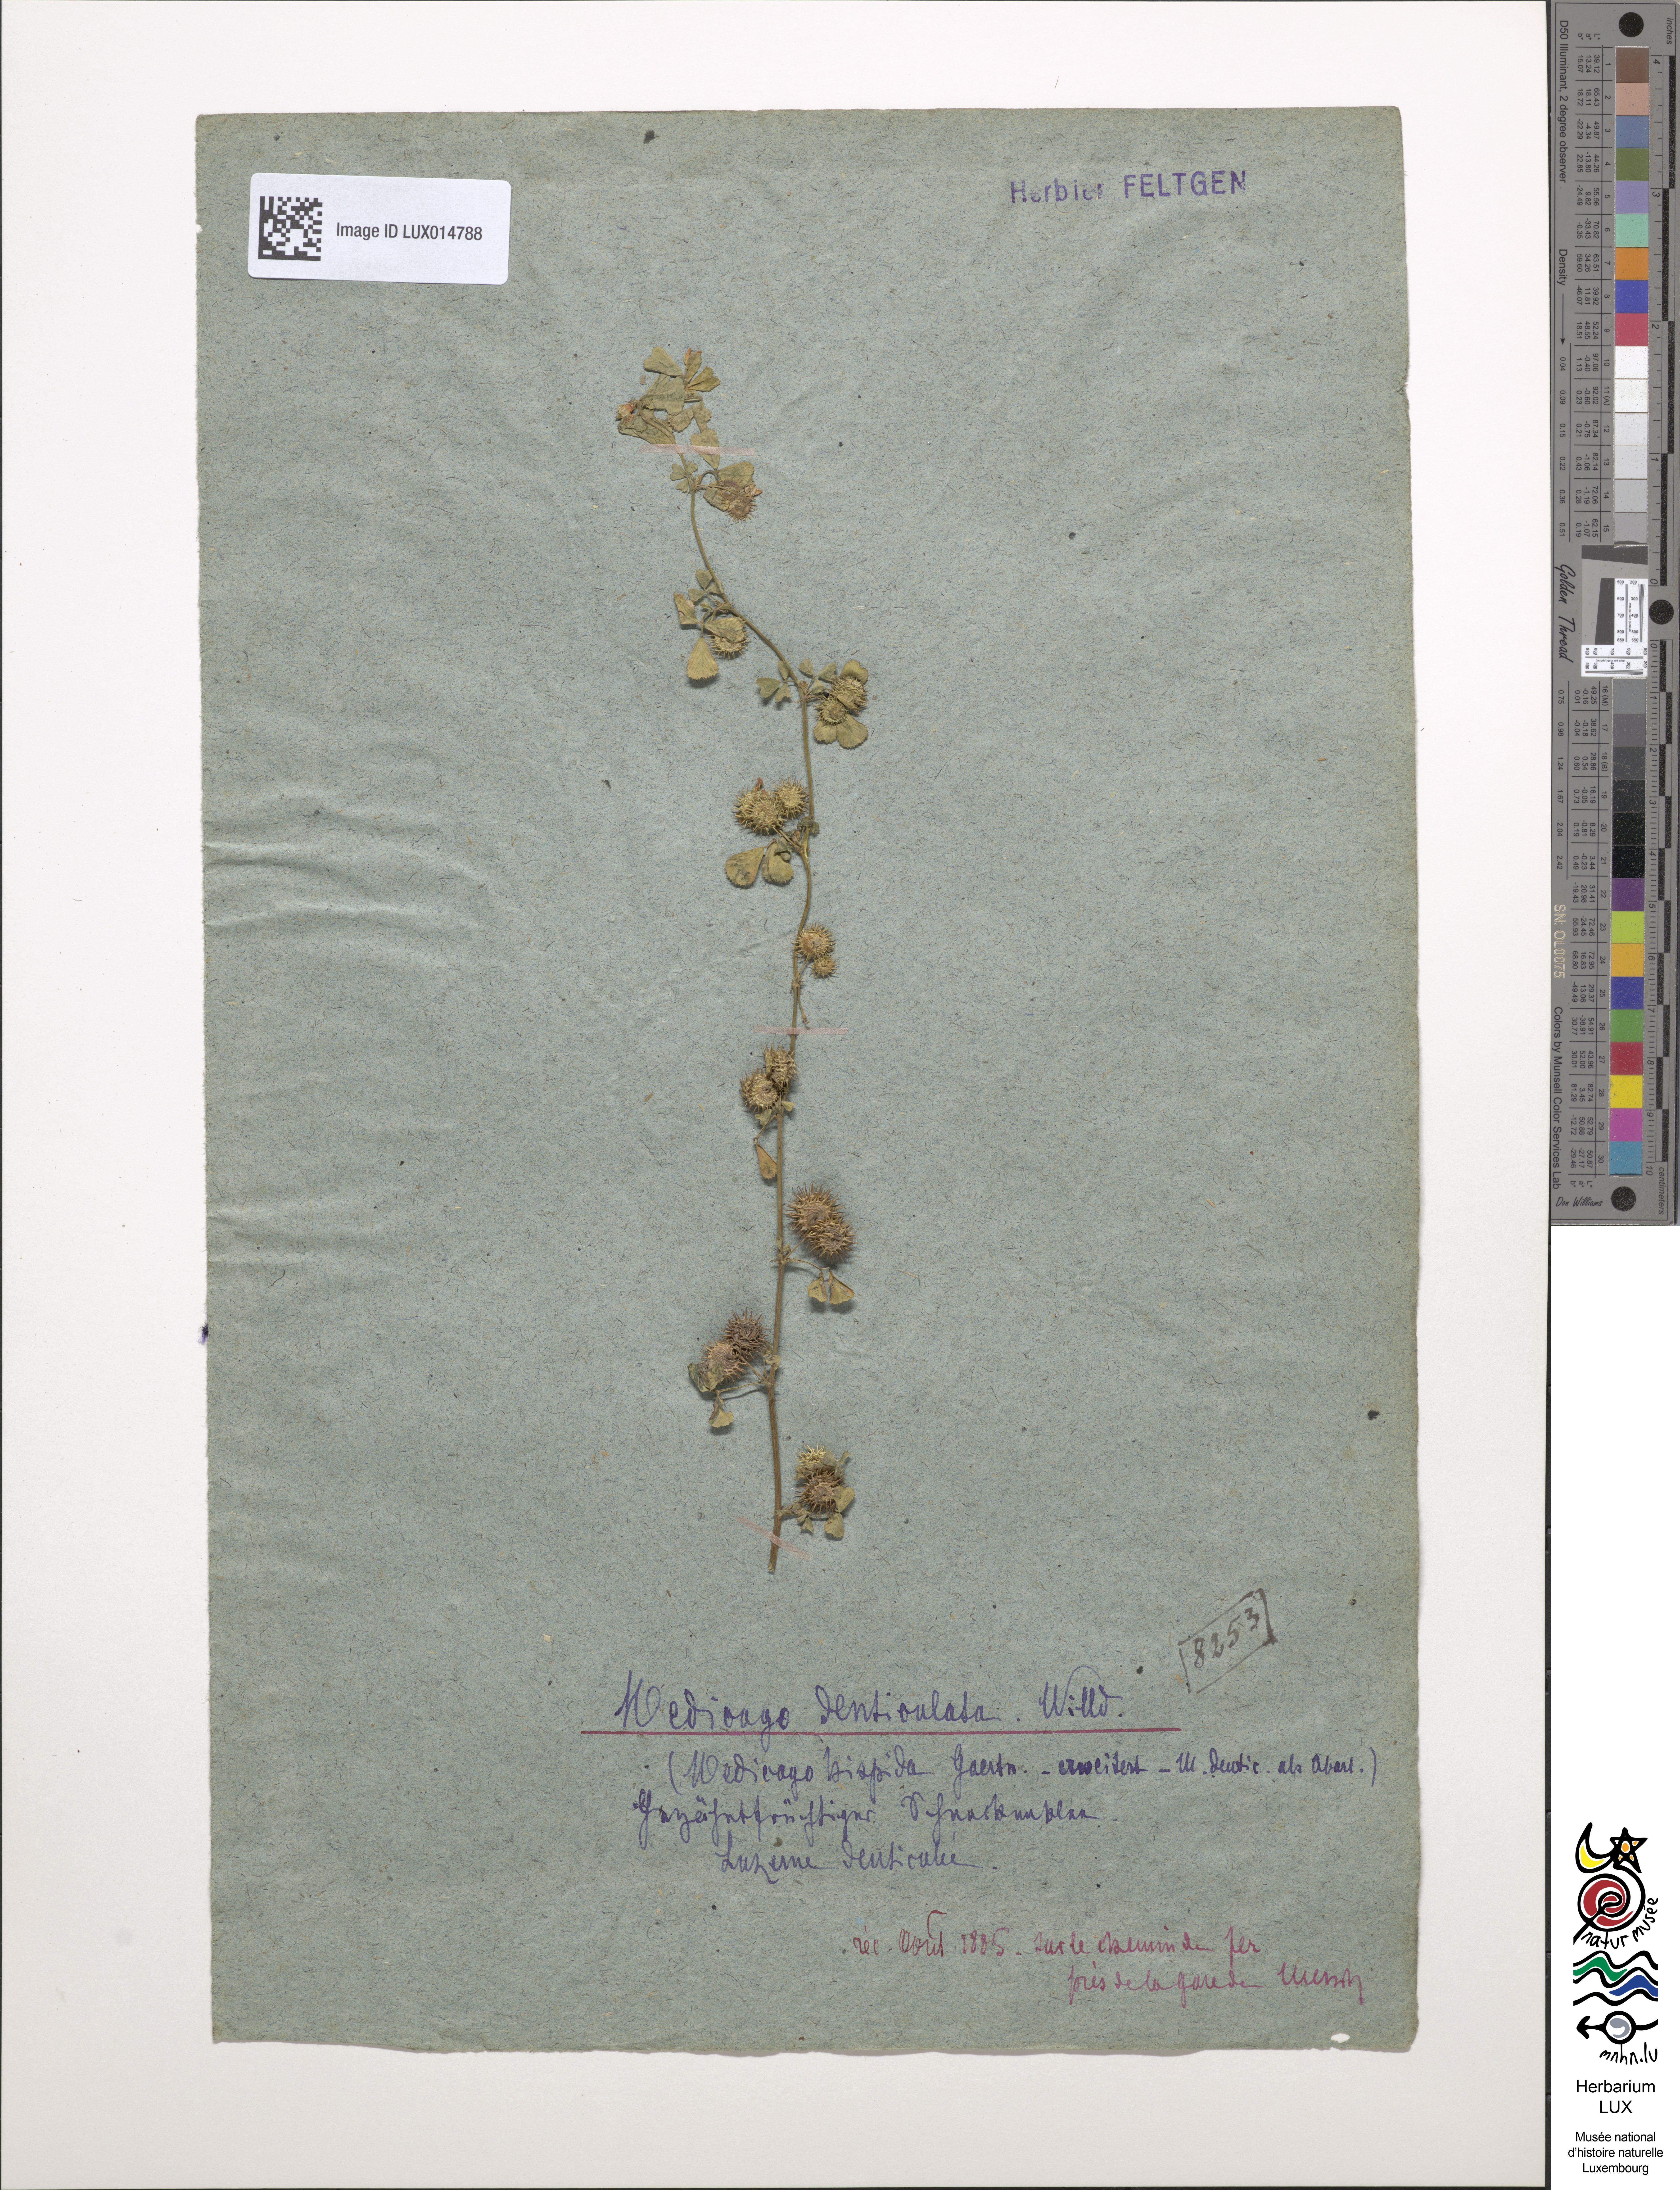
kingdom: Plantae
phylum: Tracheophyta
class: Magnoliopsida
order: Fabales
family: Fabaceae
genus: Medicago
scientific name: Medicago polymorpha
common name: Burclover
